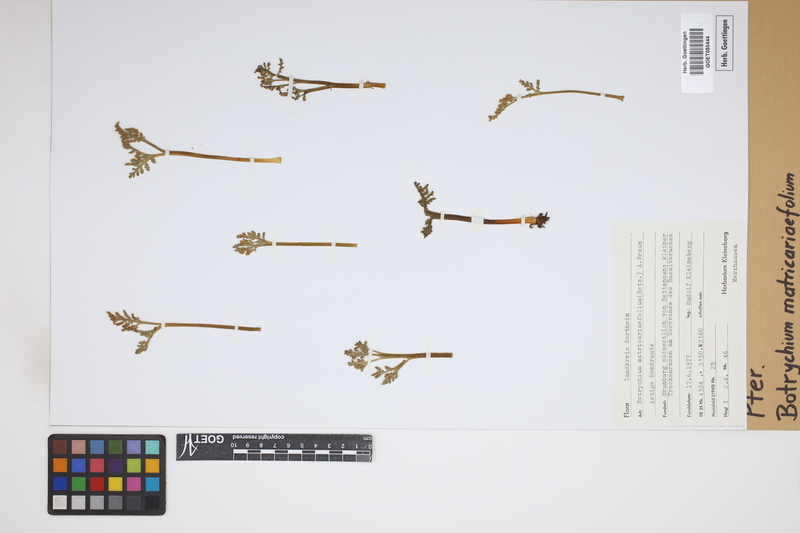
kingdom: Plantae
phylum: Tracheophyta
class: Polypodiopsida
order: Ophioglossales
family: Ophioglossaceae
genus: Botrychium
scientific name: Botrychium matricariifolium
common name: Branched moonwort
